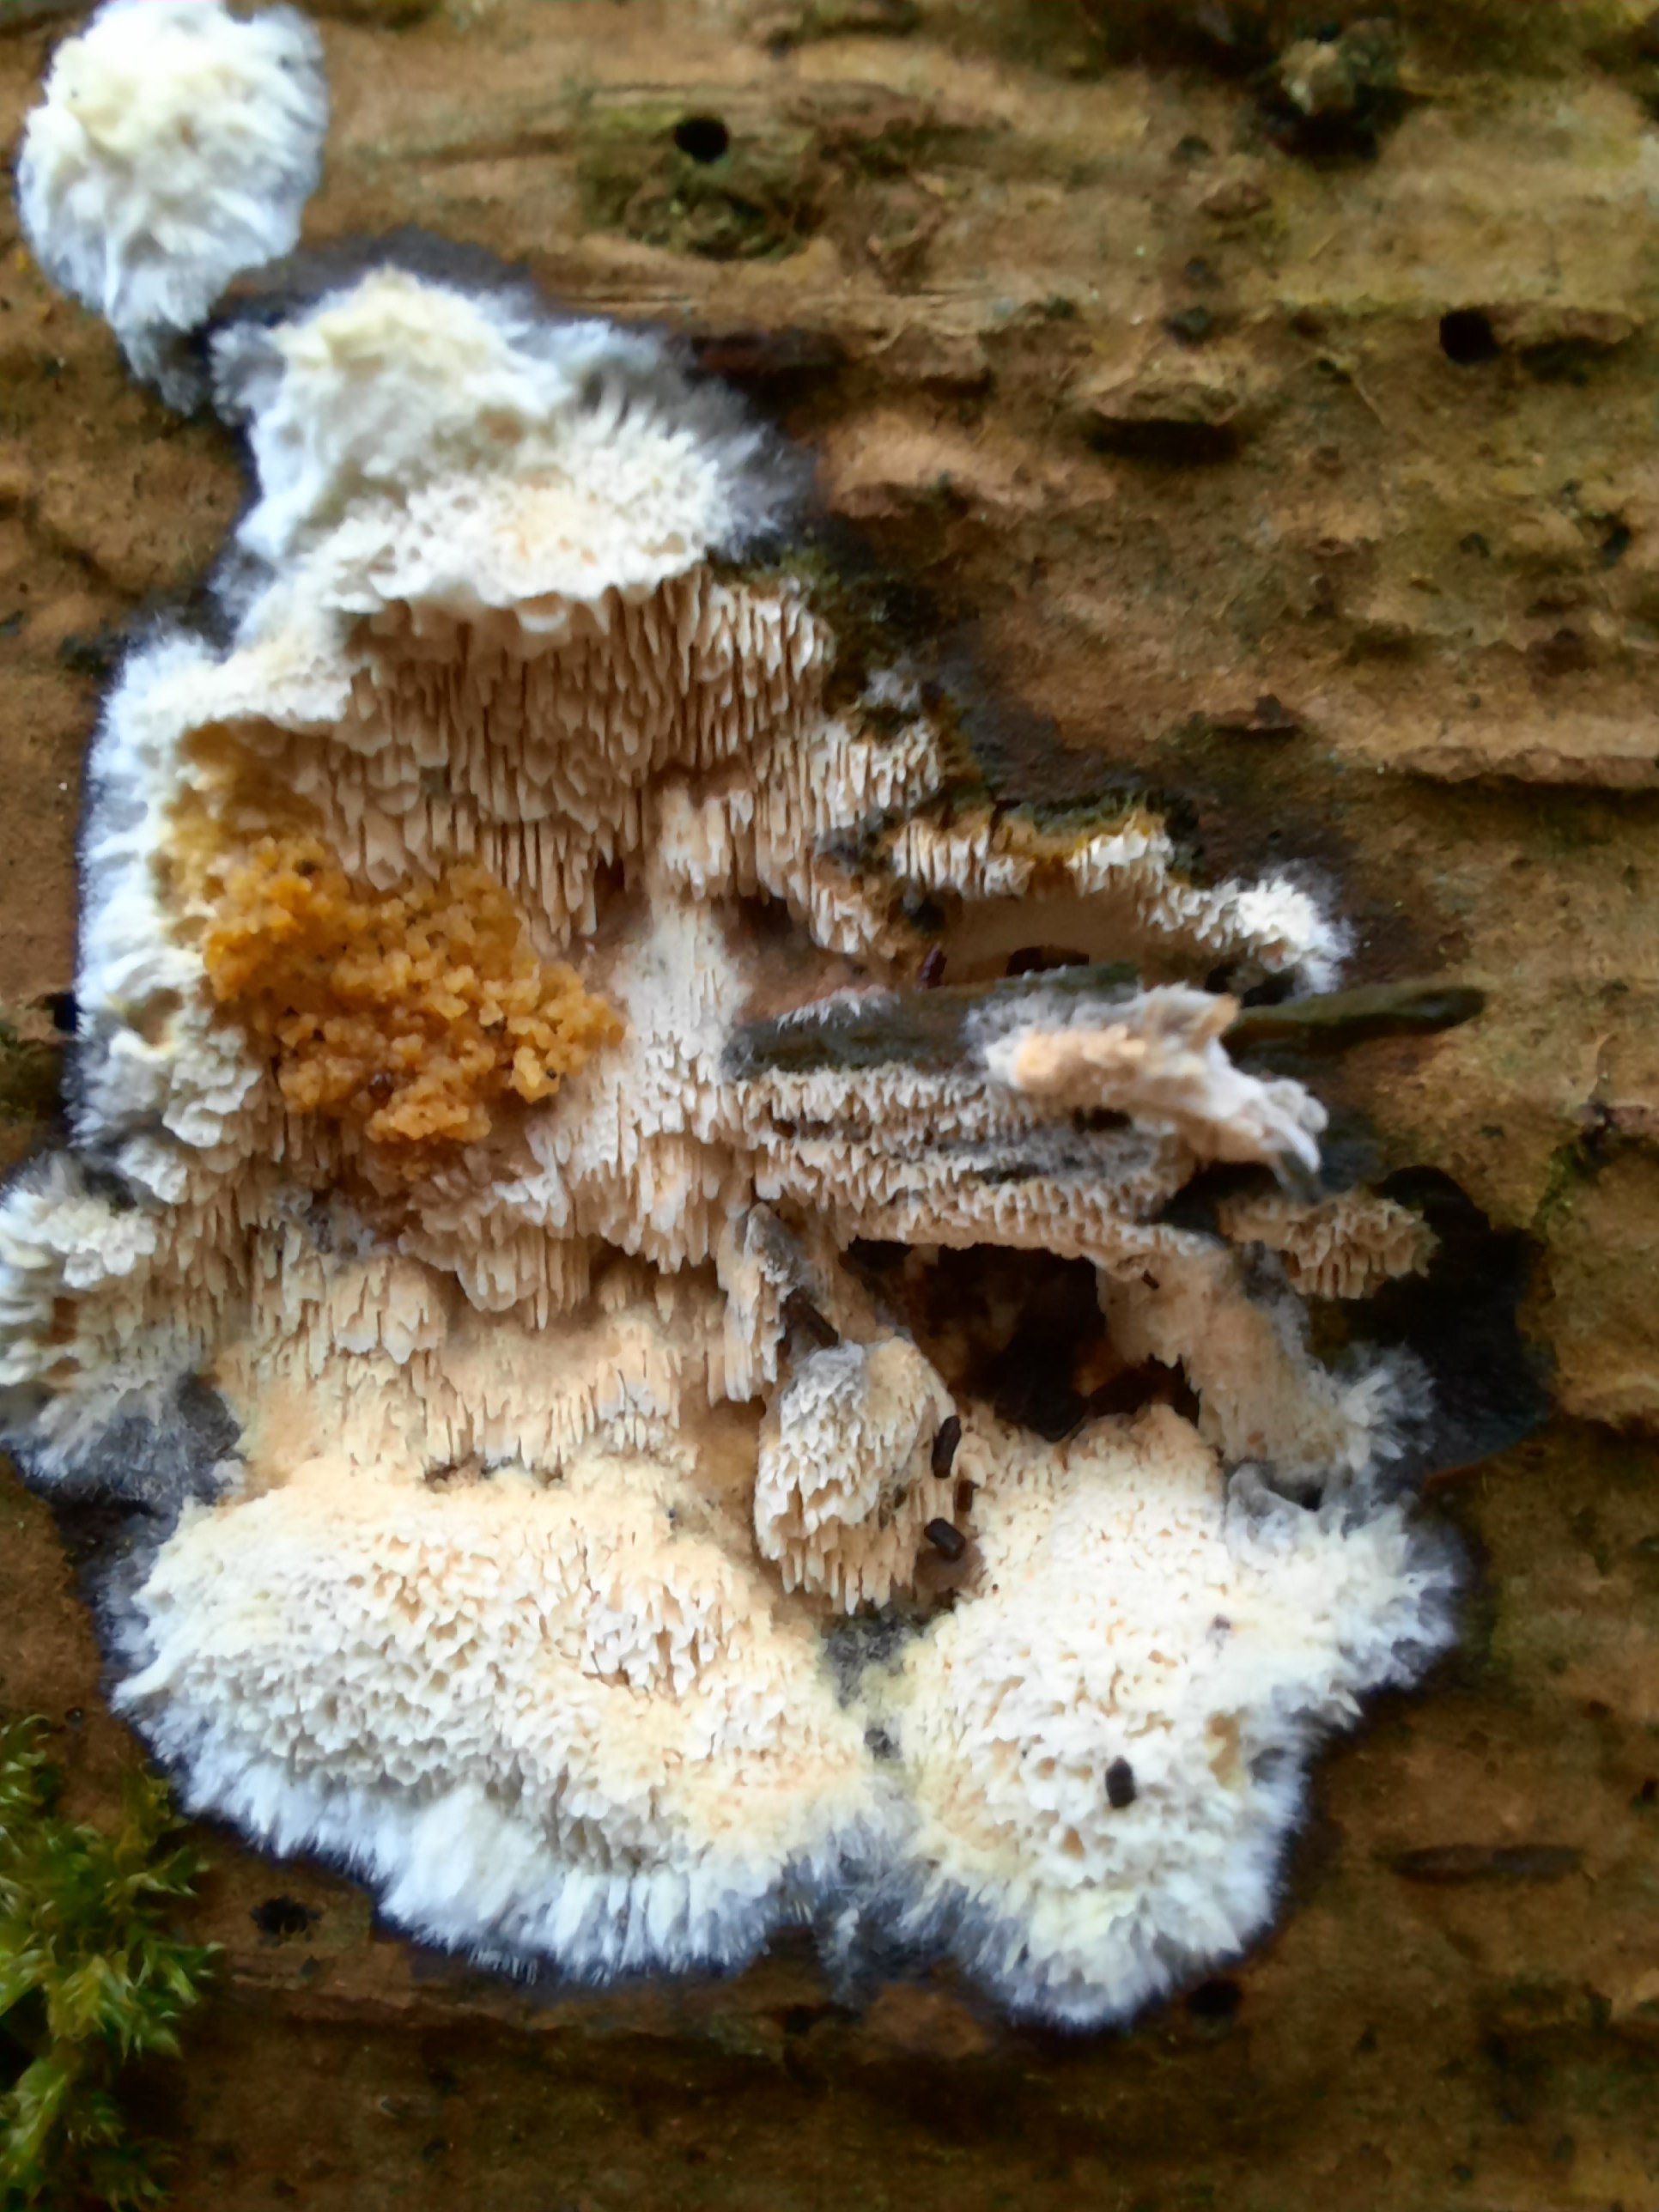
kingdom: Fungi
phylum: Basidiomycota
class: Agaricomycetes
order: Polyporales
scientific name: Polyporales
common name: poresvampordenen
